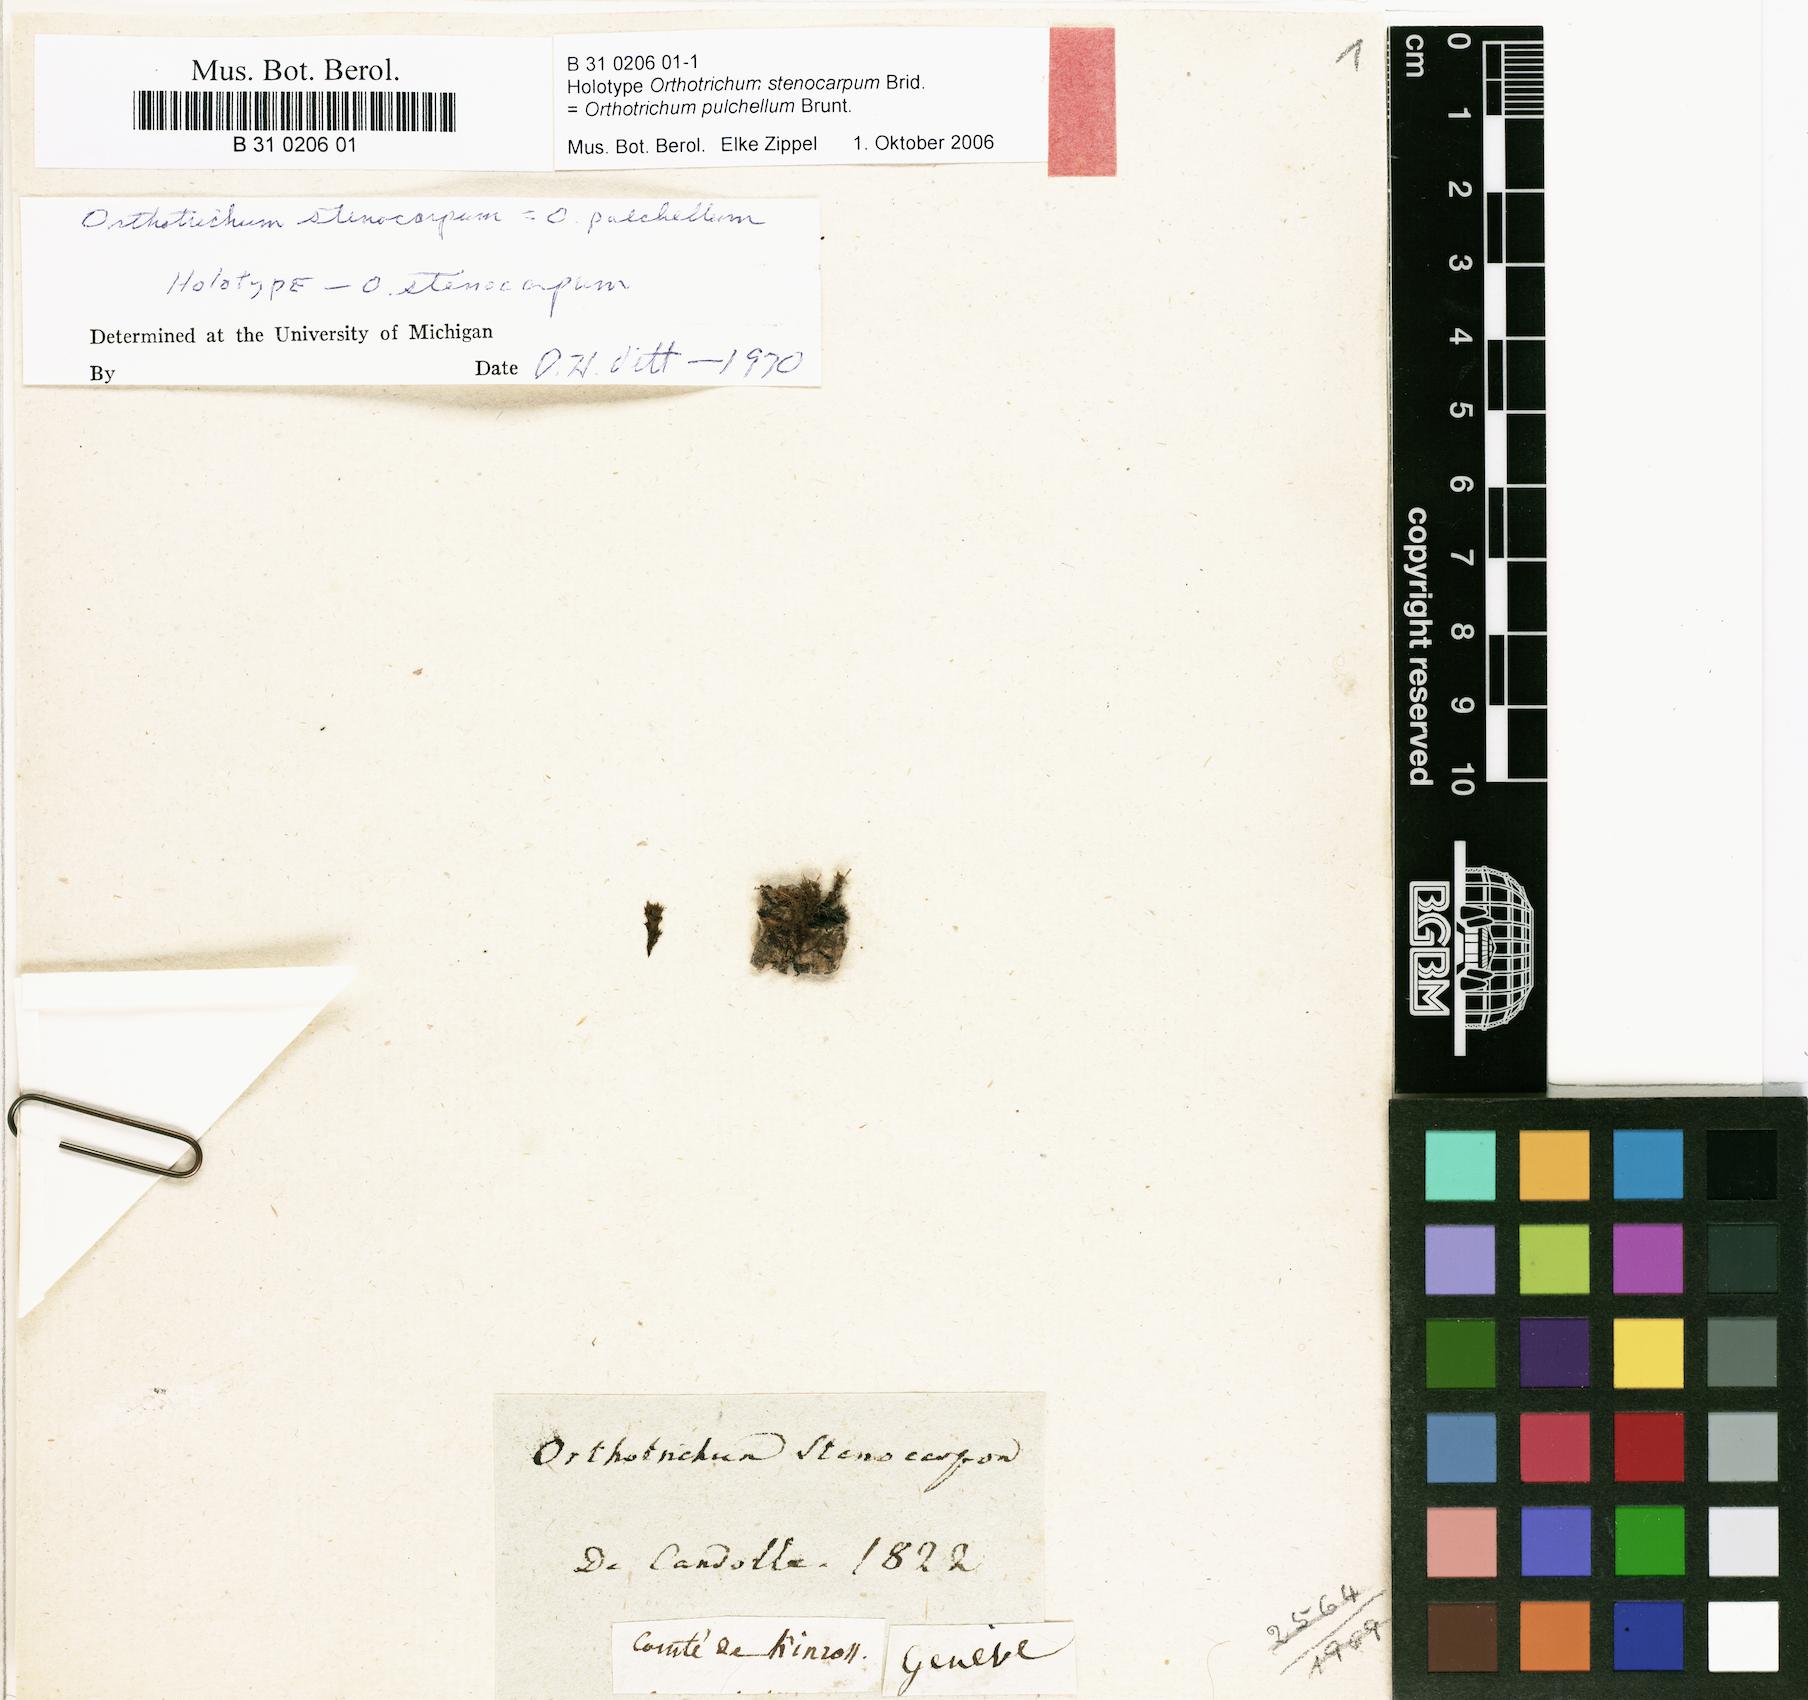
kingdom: Plantae
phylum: Bryophyta
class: Bryopsida
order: Orthotrichales
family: Orthotrichaceae
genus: Orthotrichum
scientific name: Orthotrichum pulchellum
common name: Elegant bristle-moss
